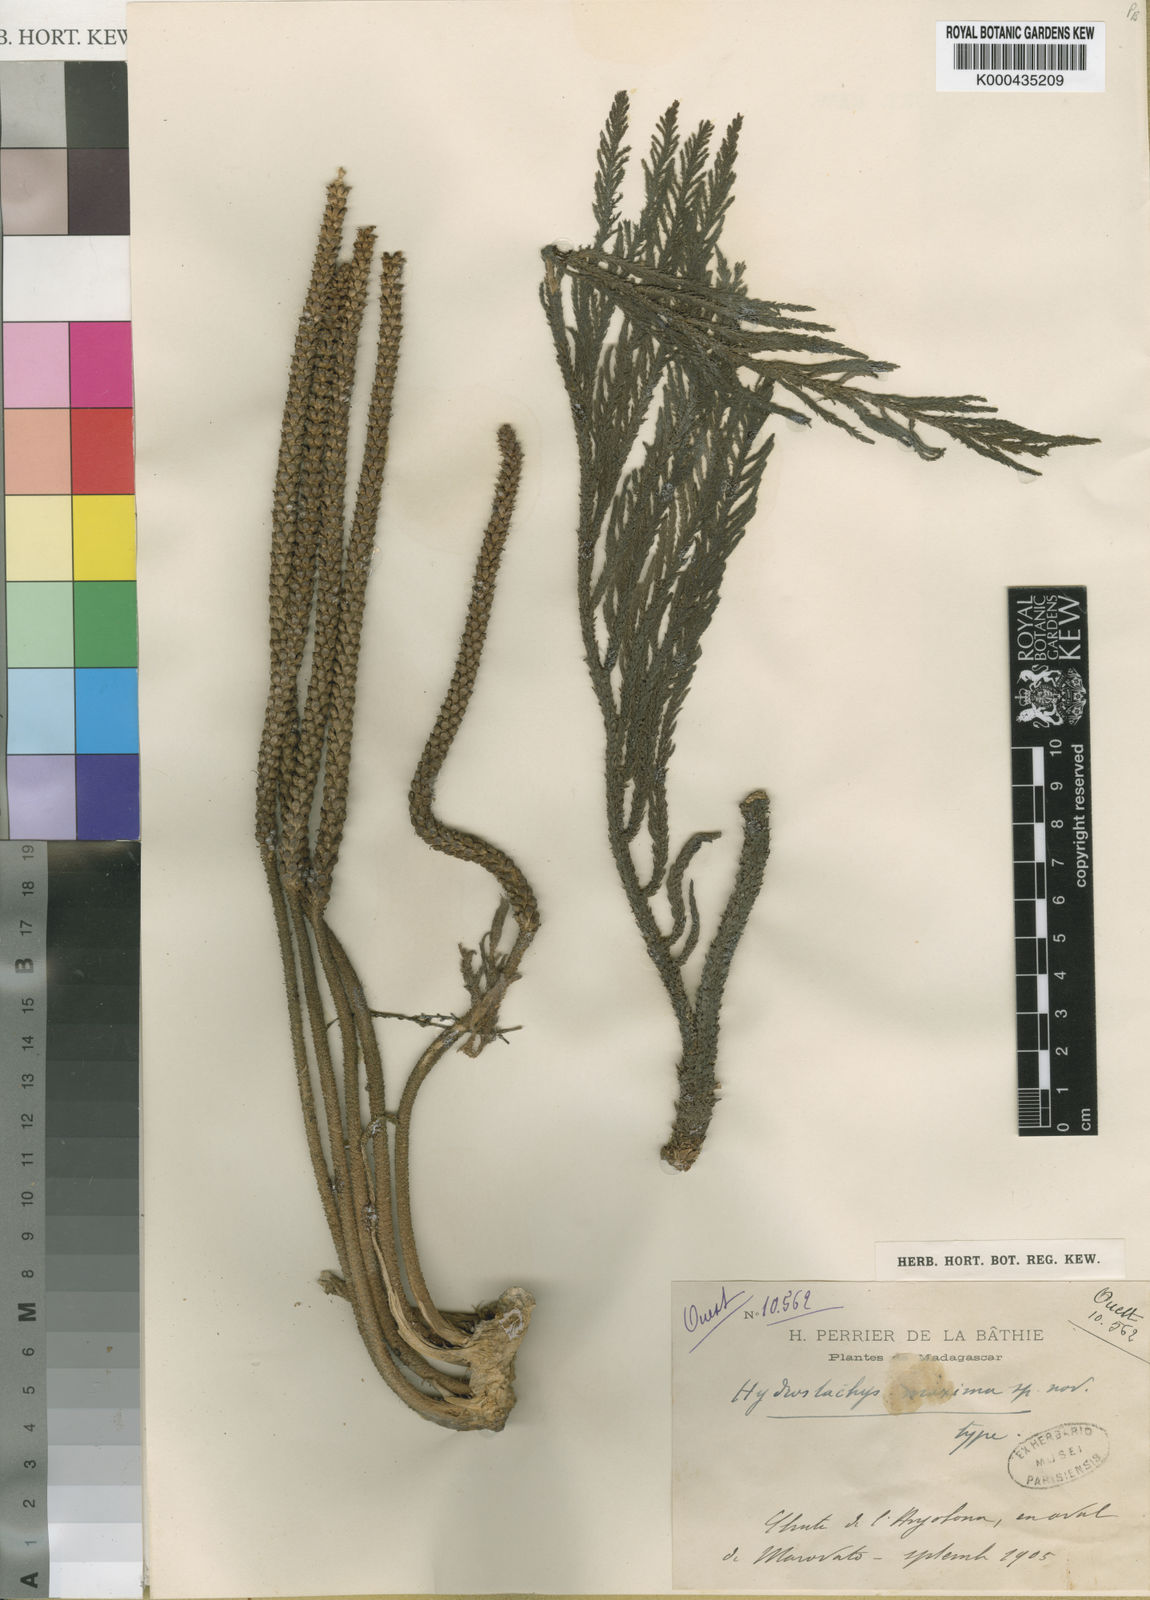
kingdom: Plantae
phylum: Tracheophyta
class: Magnoliopsida
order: Cornales
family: Hydrostachyaceae
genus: Hydrostachys
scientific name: Hydrostachys maximus
